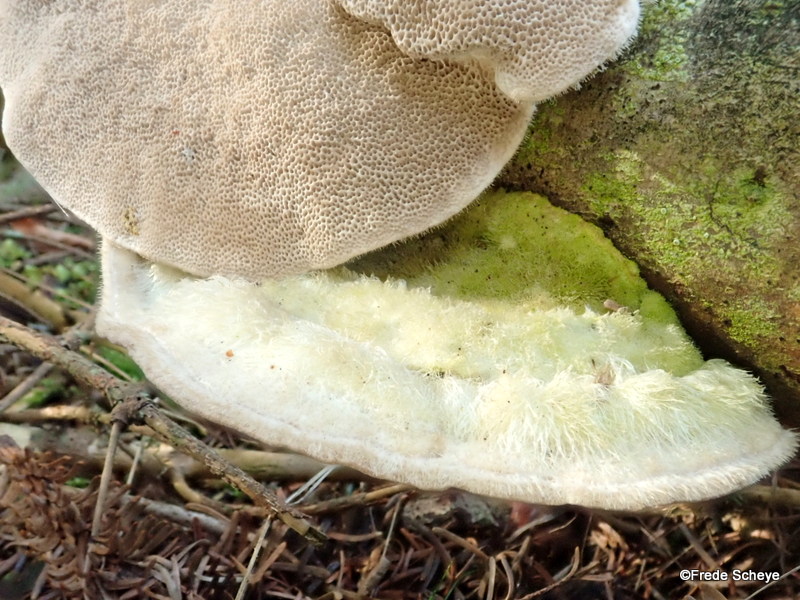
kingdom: Fungi
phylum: Basidiomycota
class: Agaricomycetes
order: Polyporales
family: Polyporaceae
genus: Trametes
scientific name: Trametes hirsuta
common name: håret læderporesvamp
